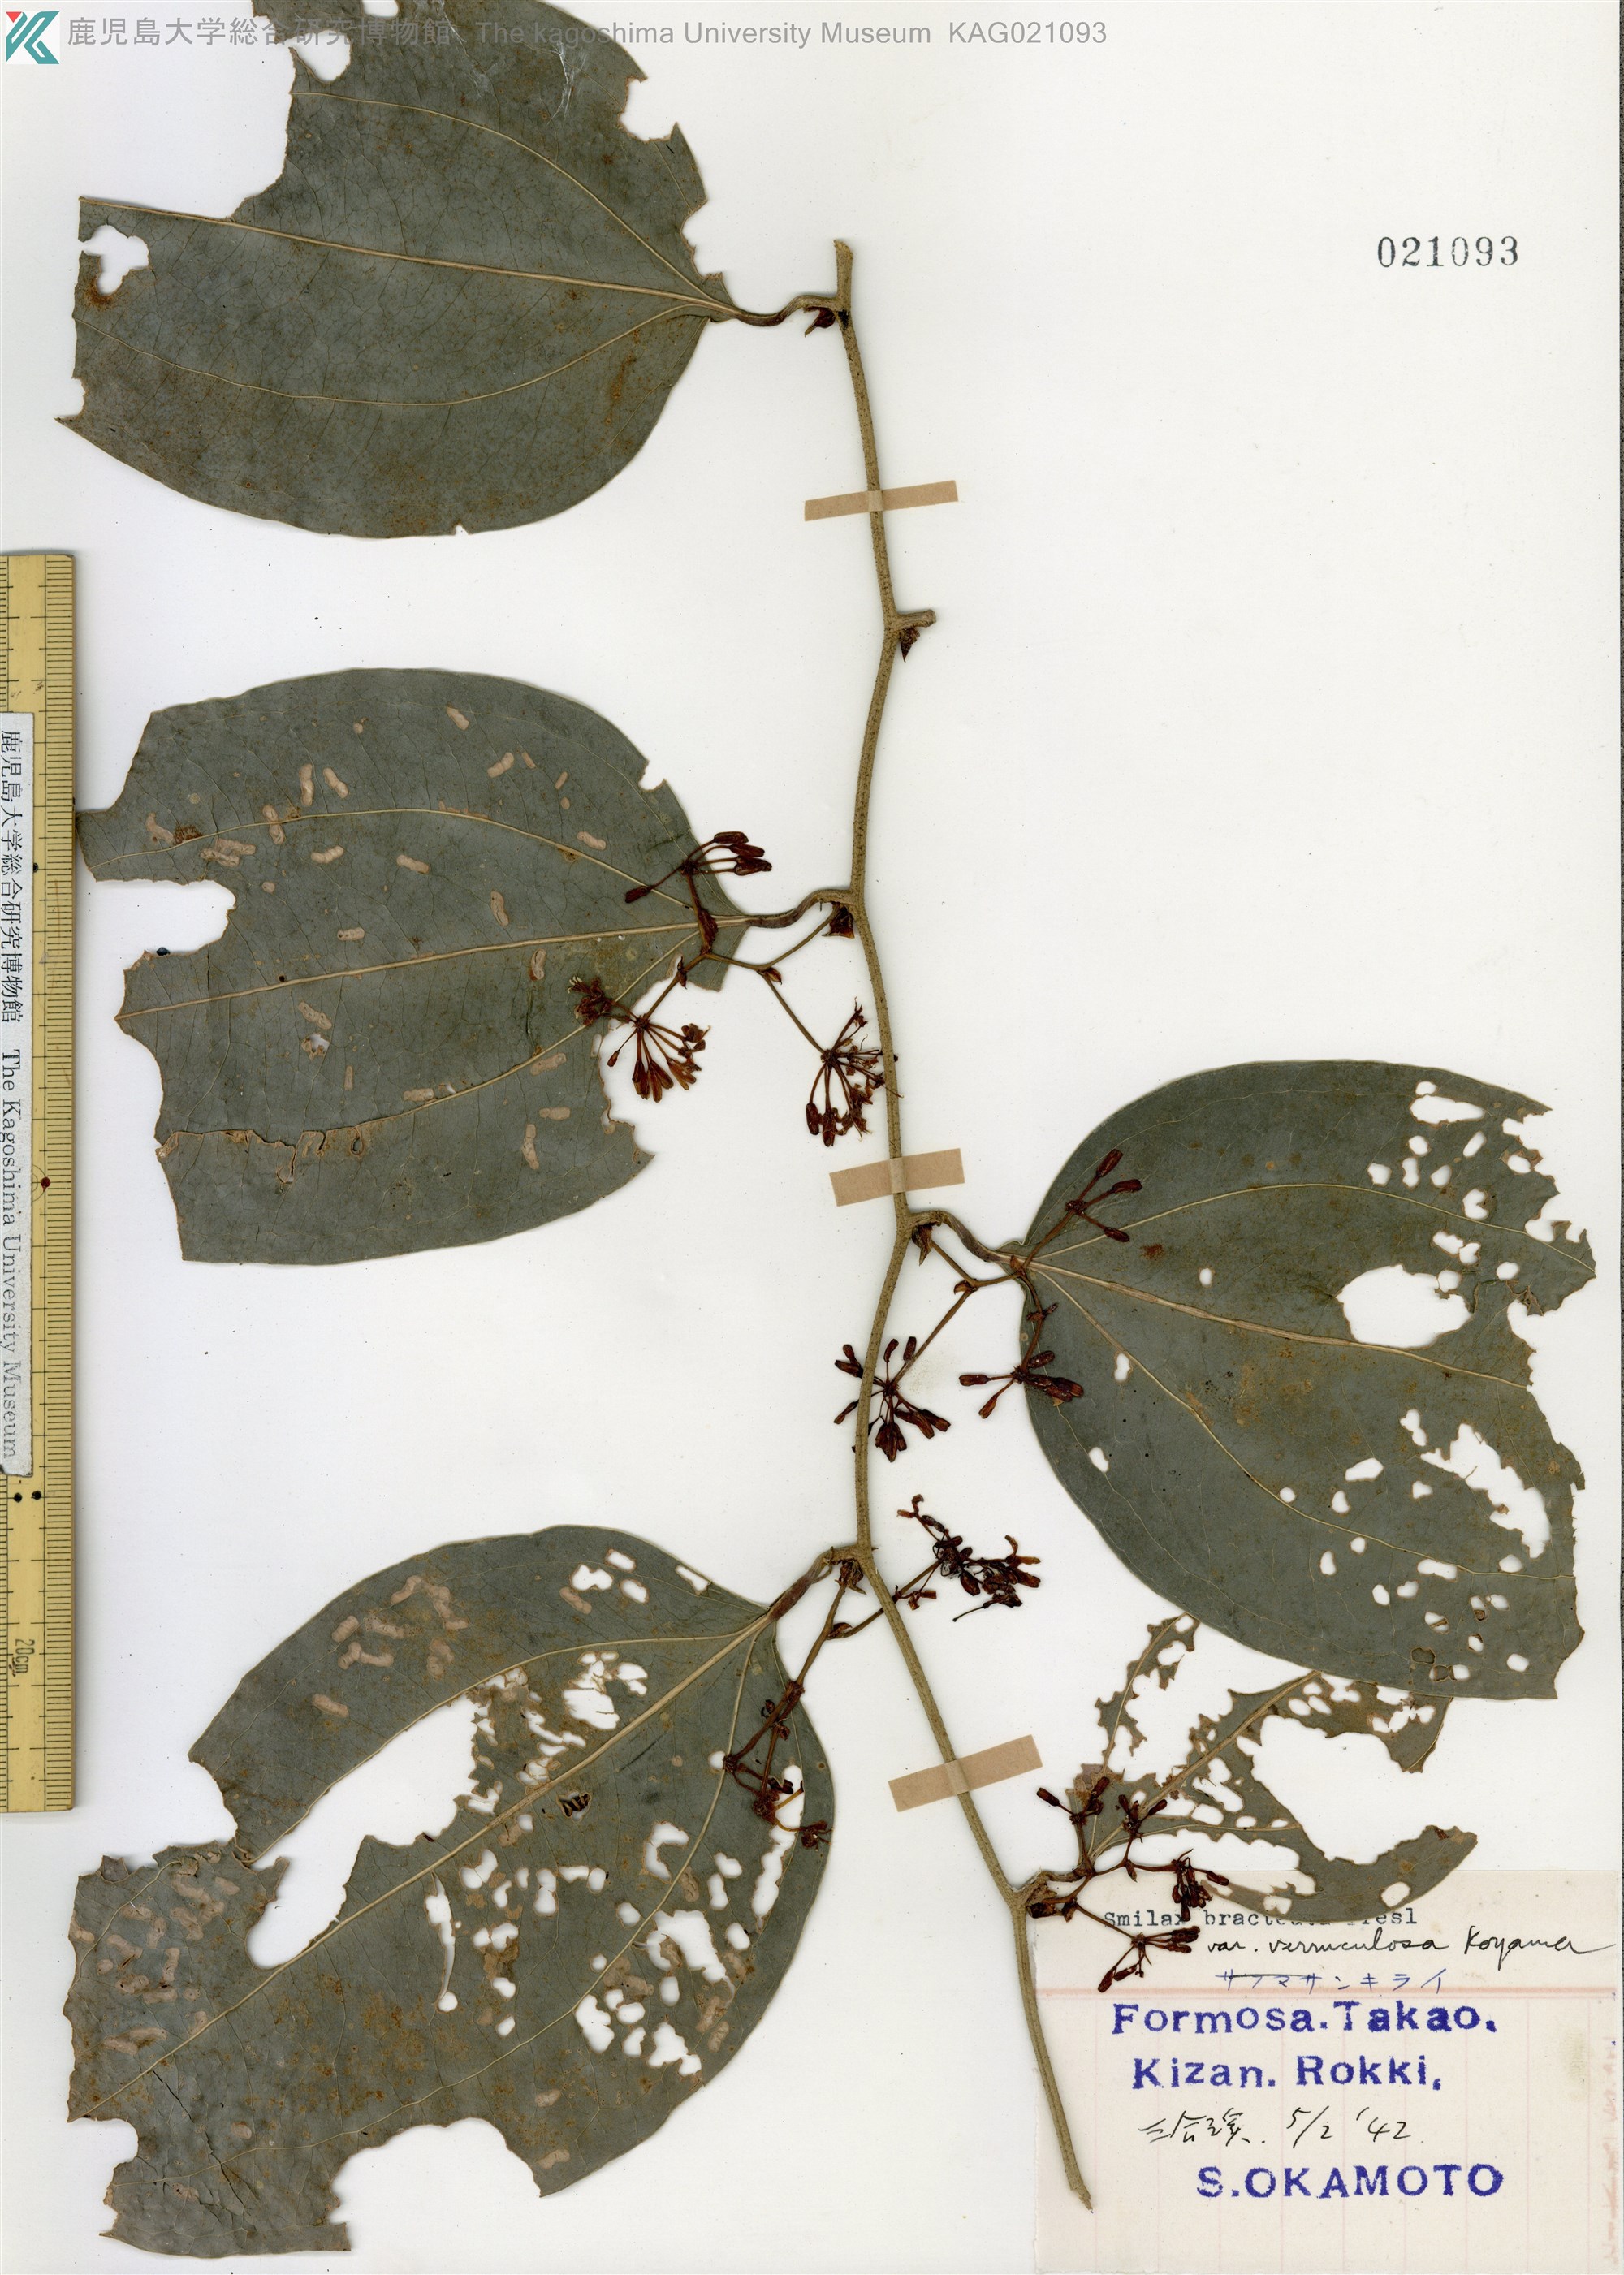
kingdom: Plantae
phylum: Tracheophyta
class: Liliopsida
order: Liliales
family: Smilacaceae
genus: Smilax
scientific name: Smilax bracteata
